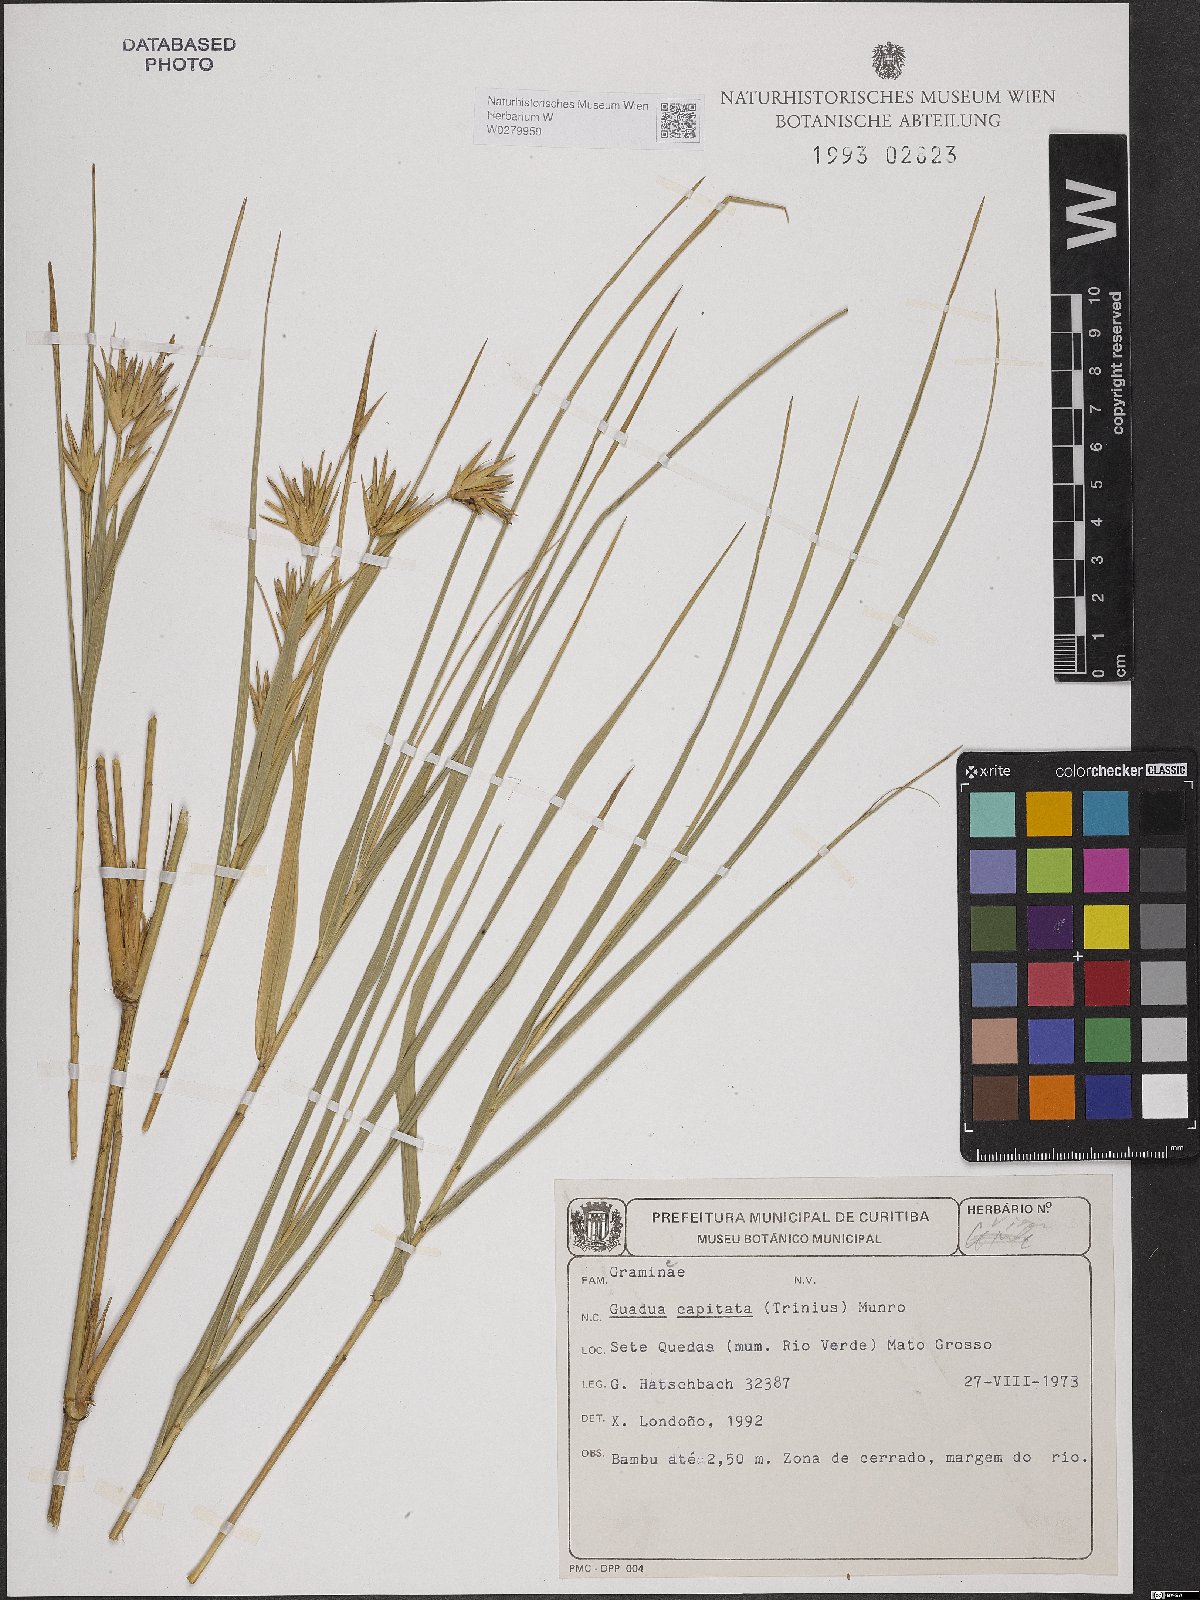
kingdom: Plantae
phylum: Tracheophyta
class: Liliopsida
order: Poales
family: Poaceae
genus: Eremocaulon
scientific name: Eremocaulon capitatum
